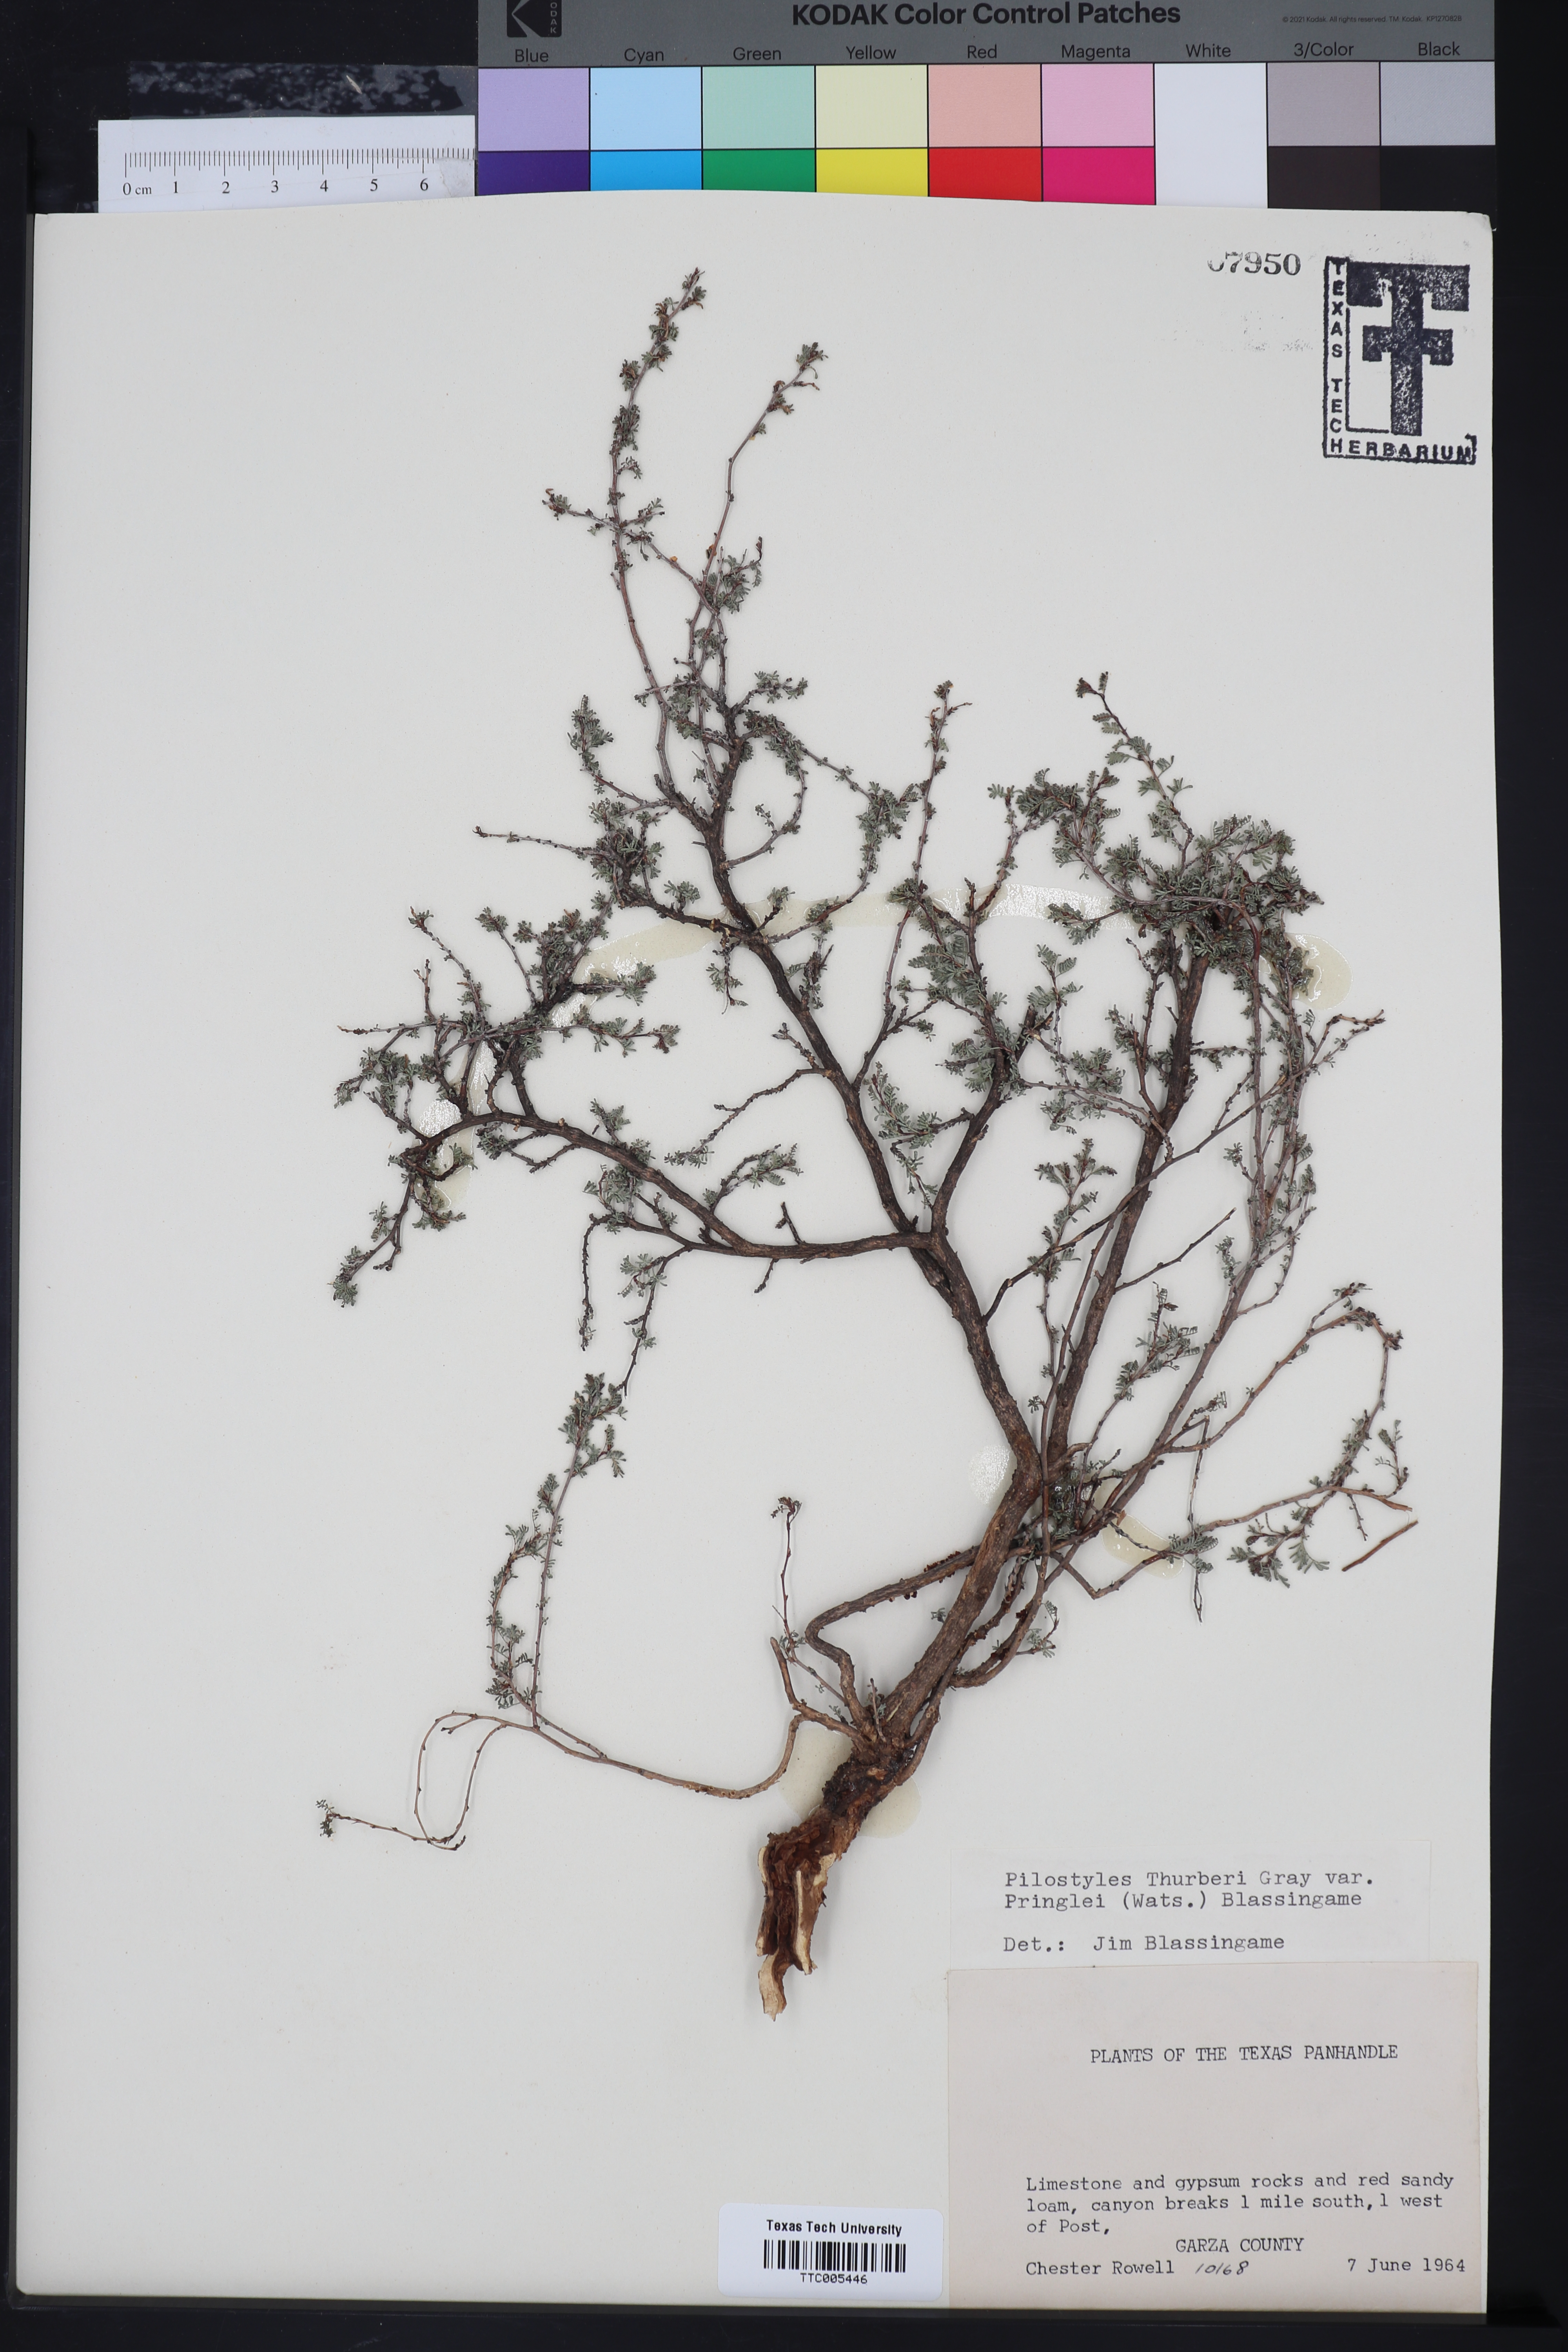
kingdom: Plantae
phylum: Tracheophyta
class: Magnoliopsida
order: Cucurbitales
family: Apodanthaceae
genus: Pilostyles
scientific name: Pilostyles thurberi
